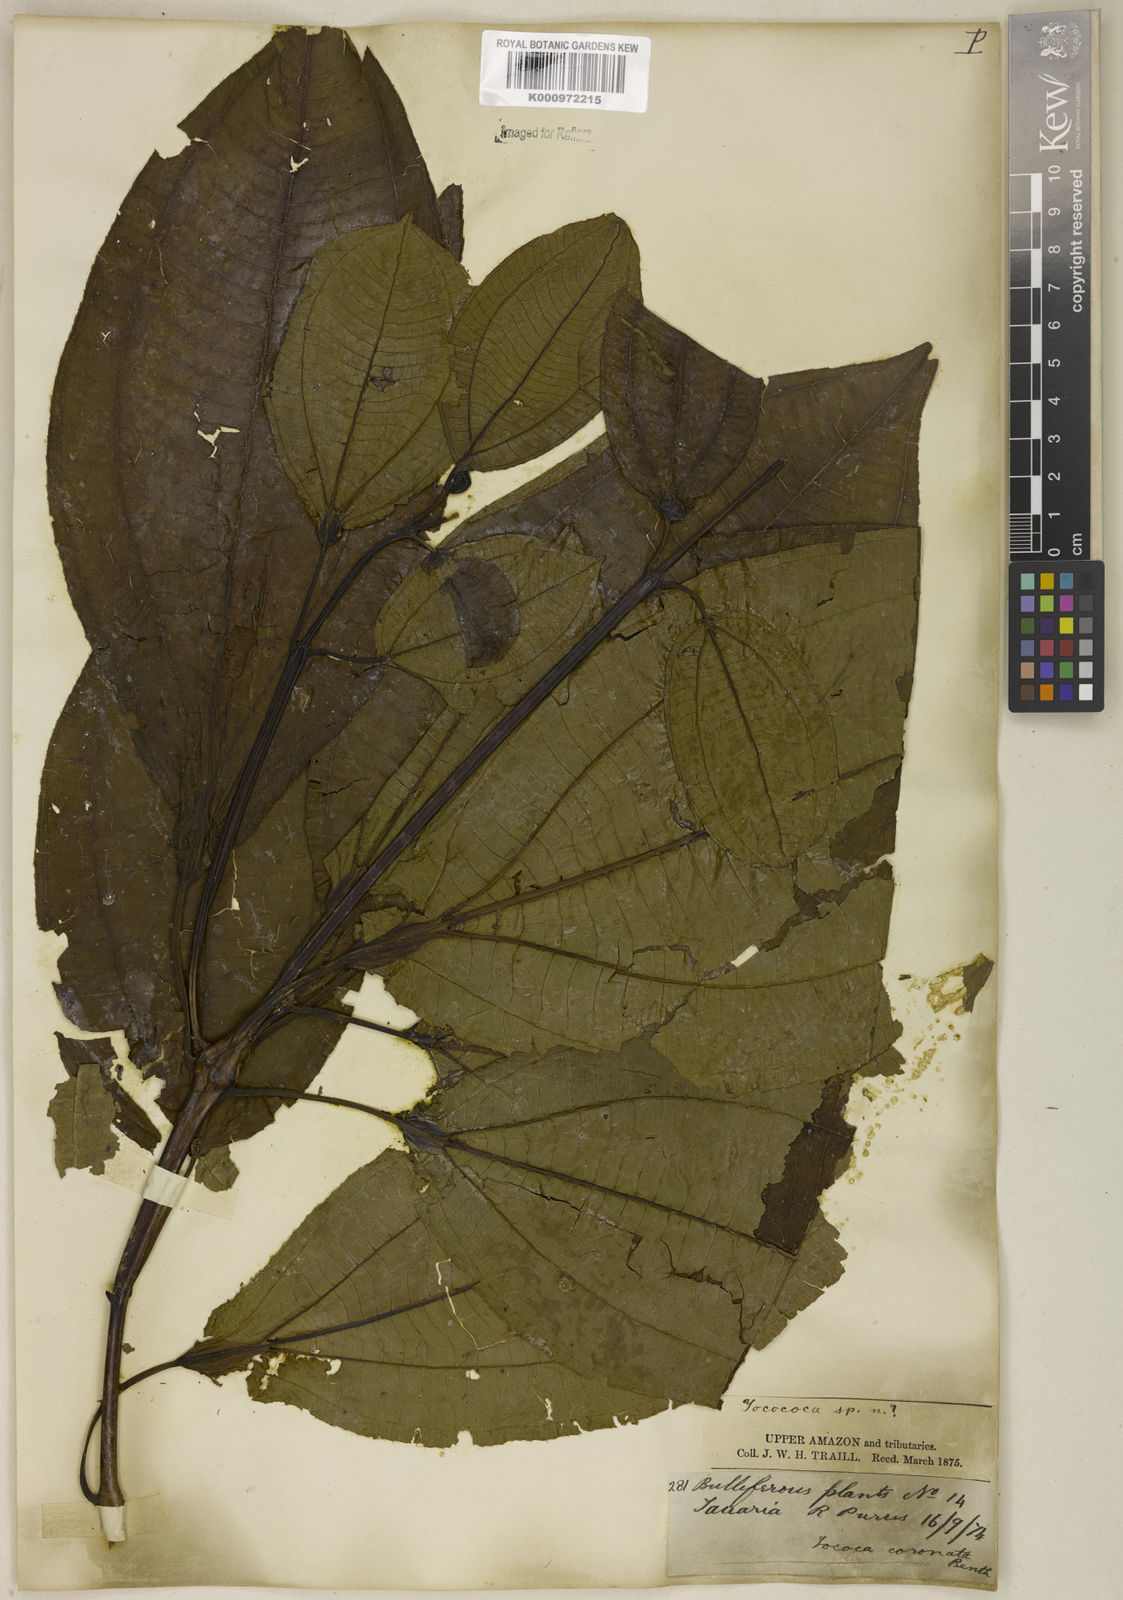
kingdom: Plantae
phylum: Tracheophyta
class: Magnoliopsida
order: Myrtales
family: Melastomataceae
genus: Miconia
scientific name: Miconia tococoronata
